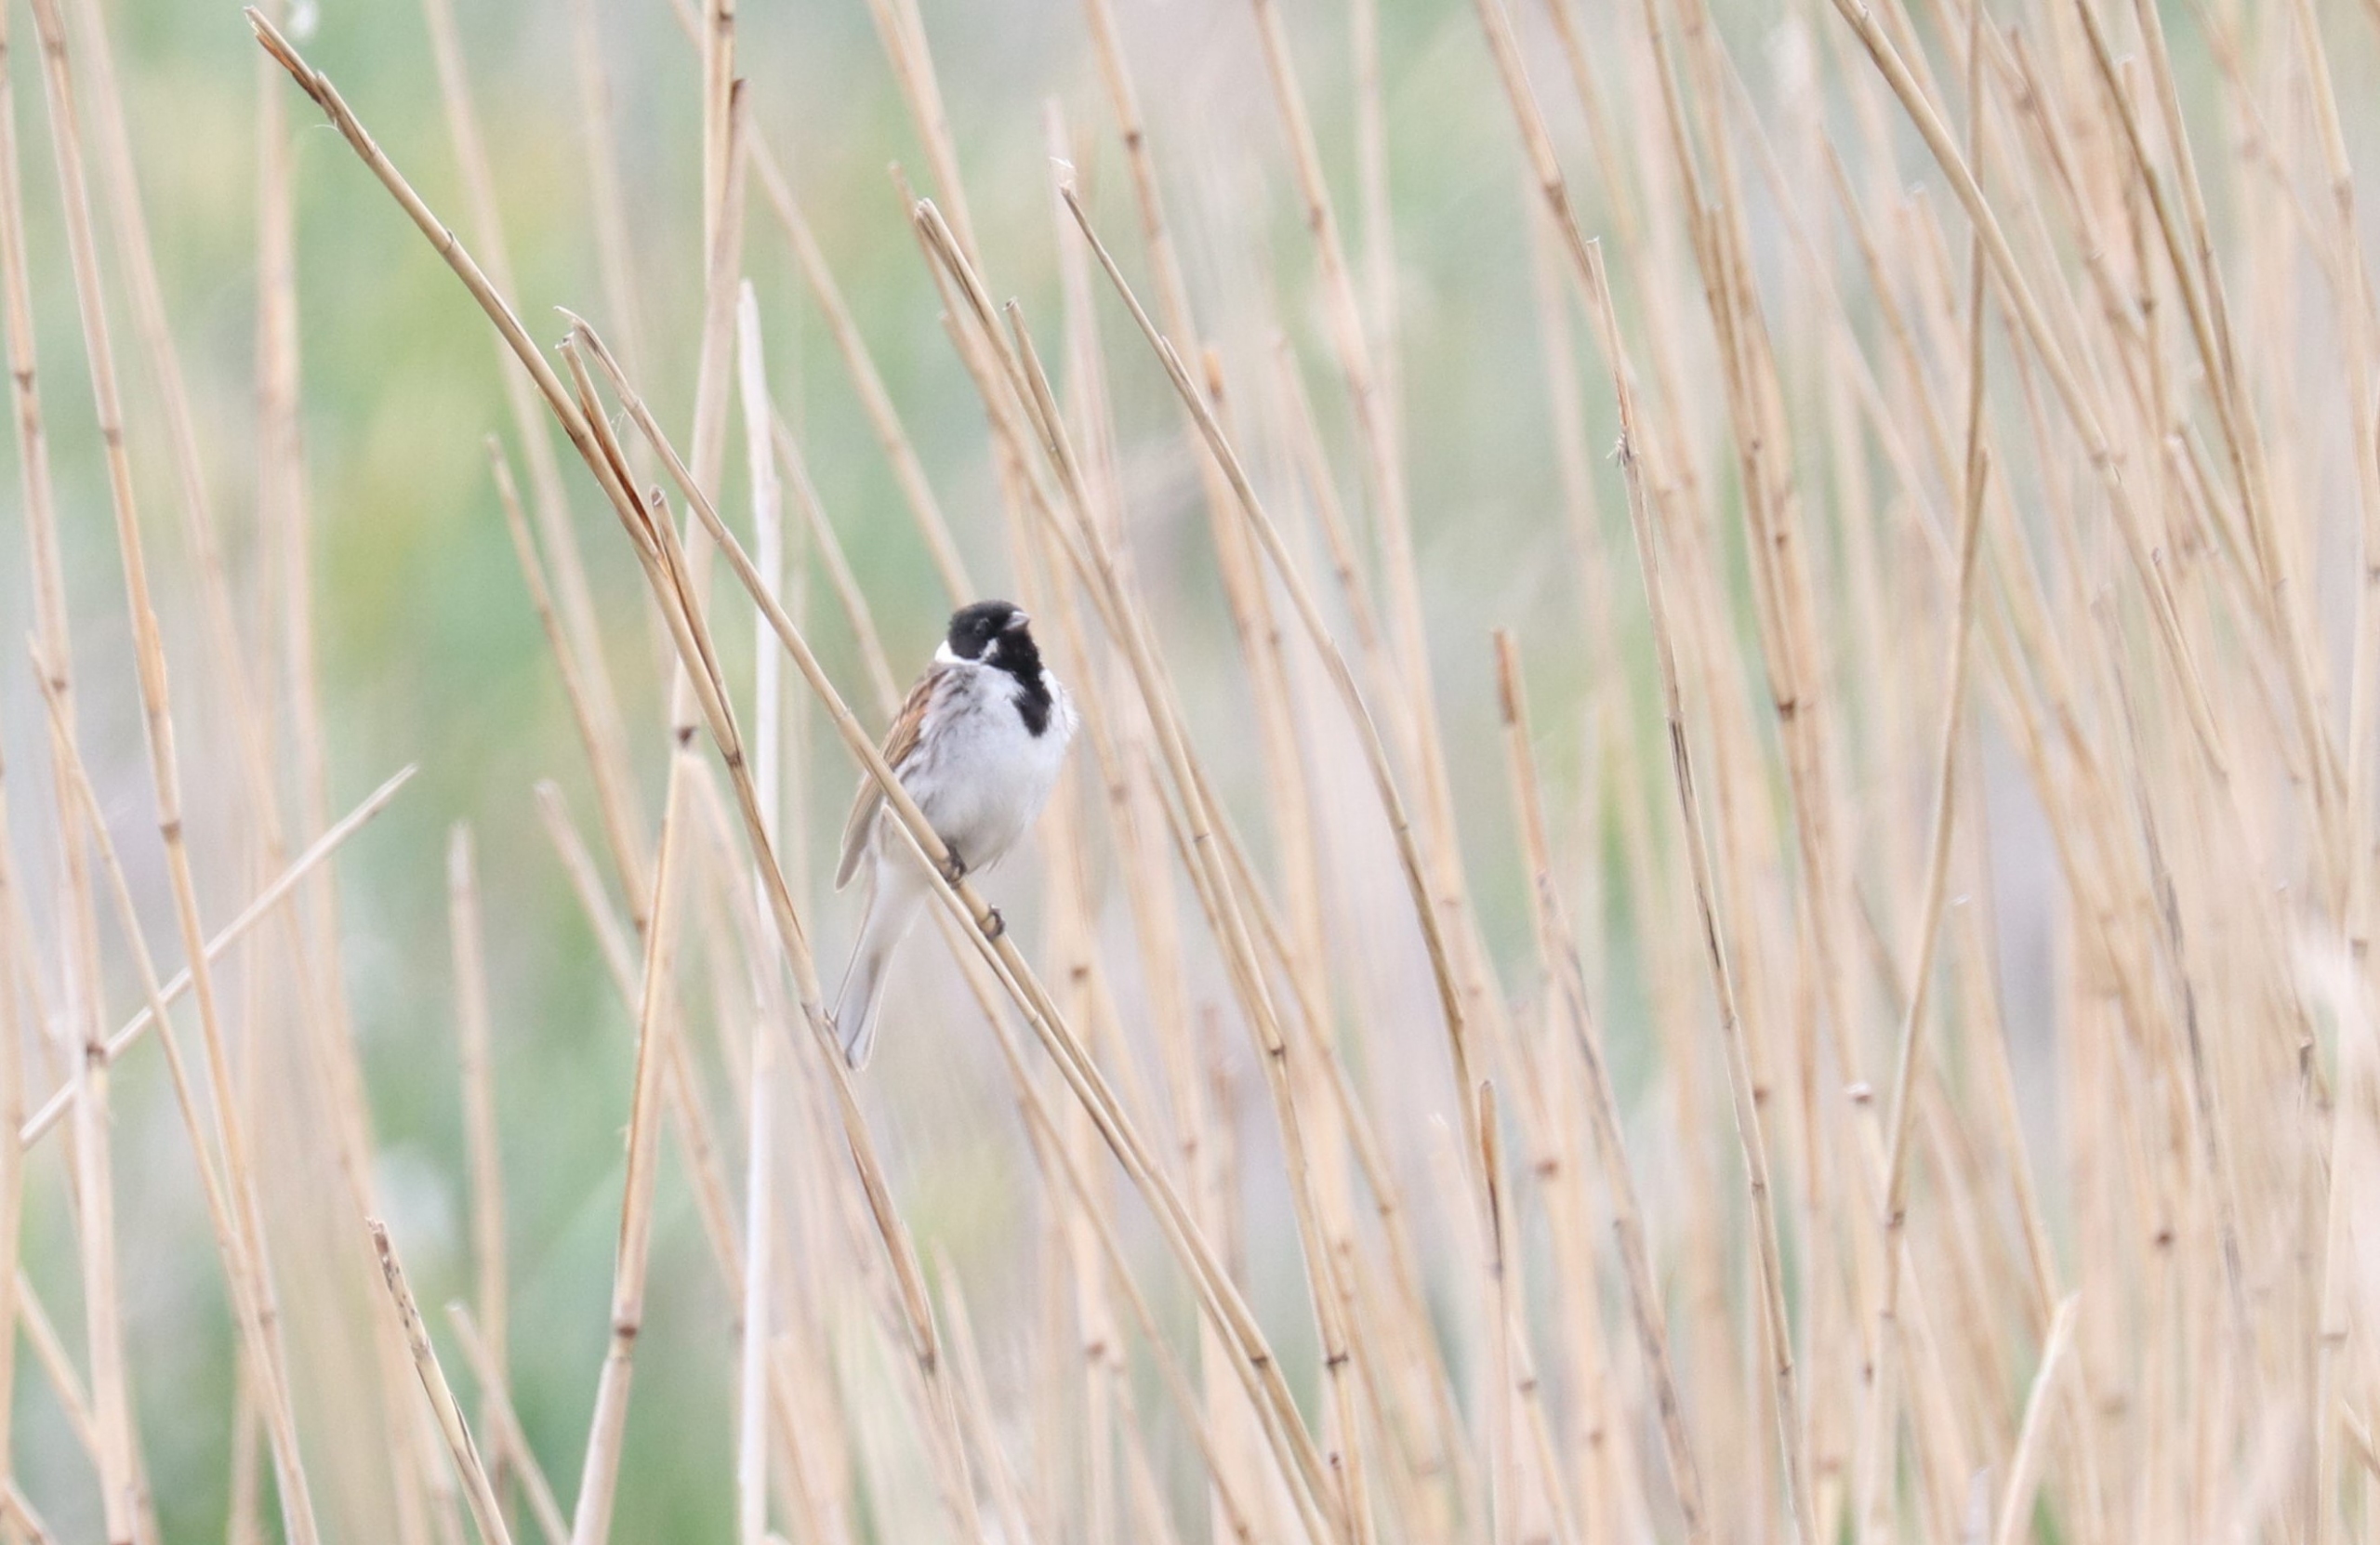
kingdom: Animalia
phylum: Chordata
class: Aves
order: Passeriformes
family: Emberizidae
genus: Emberiza
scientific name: Emberiza schoeniclus
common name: Rørspurv
